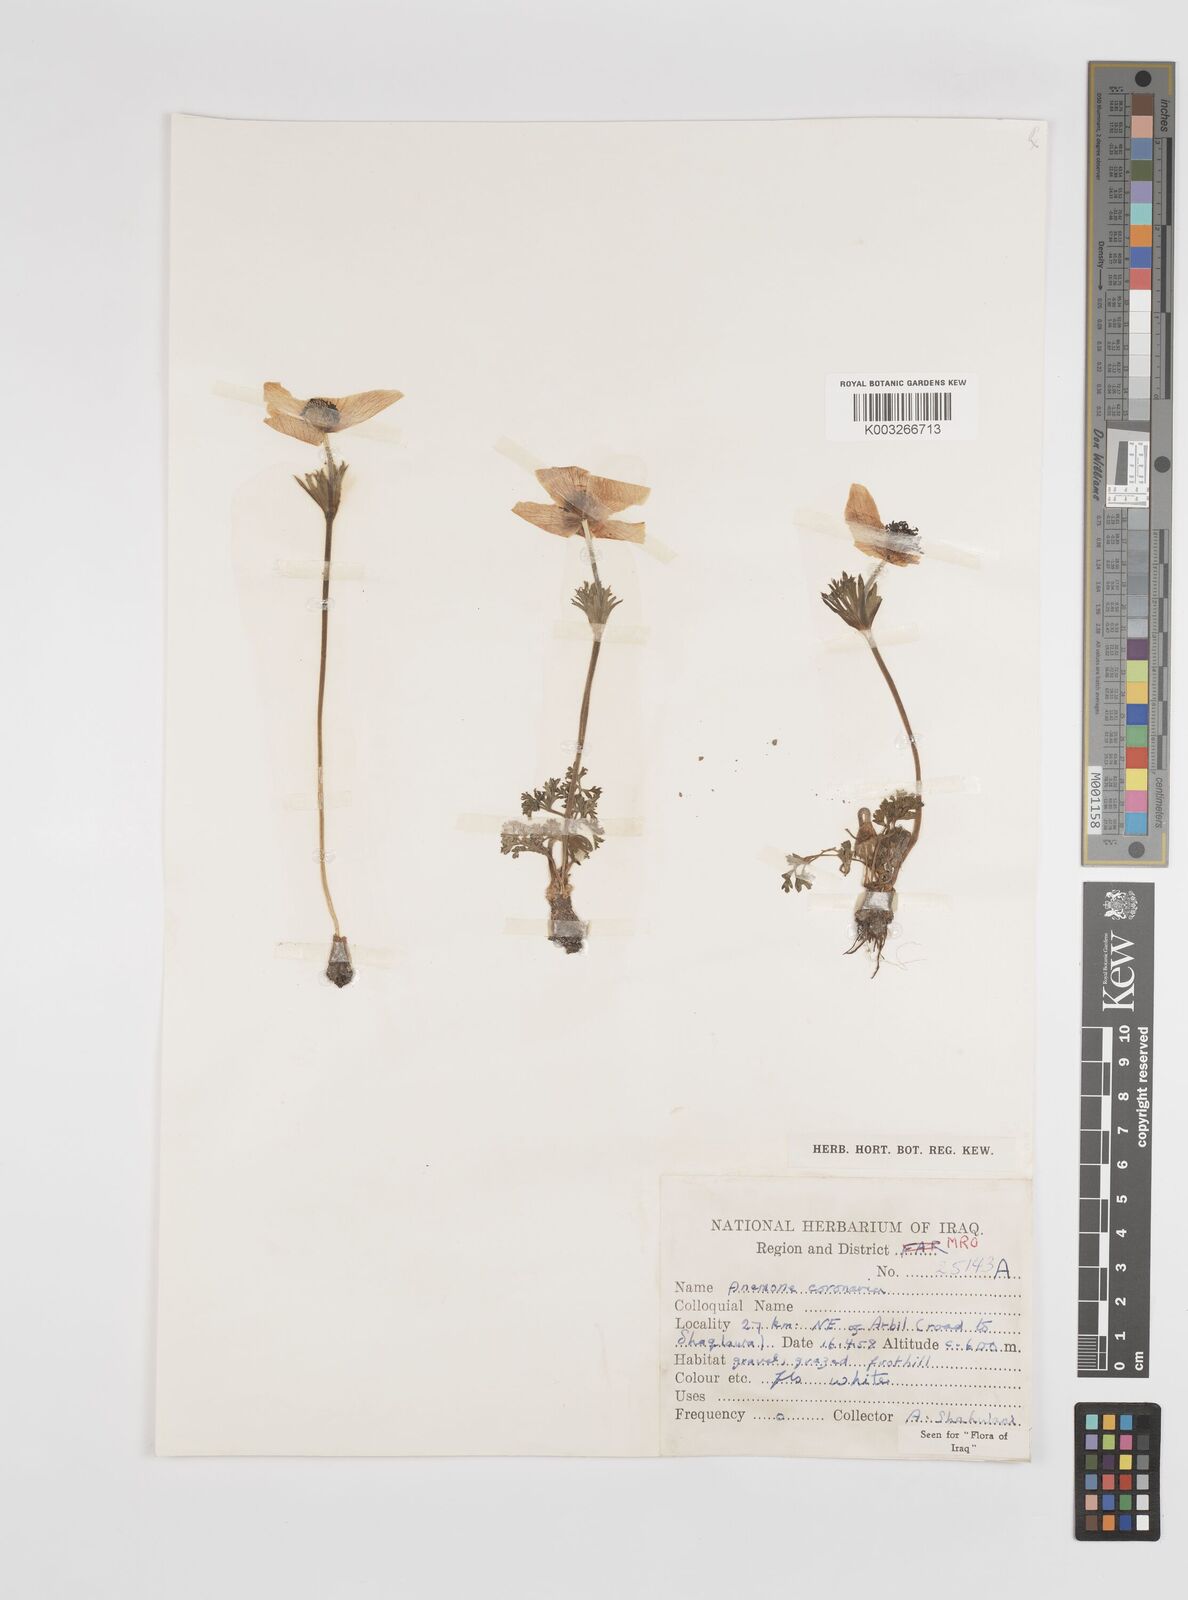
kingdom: Plantae
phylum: Tracheophyta
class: Magnoliopsida
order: Ranunculales
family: Ranunculaceae
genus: Anemone
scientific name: Anemone coronaria
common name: Poppy anemone
